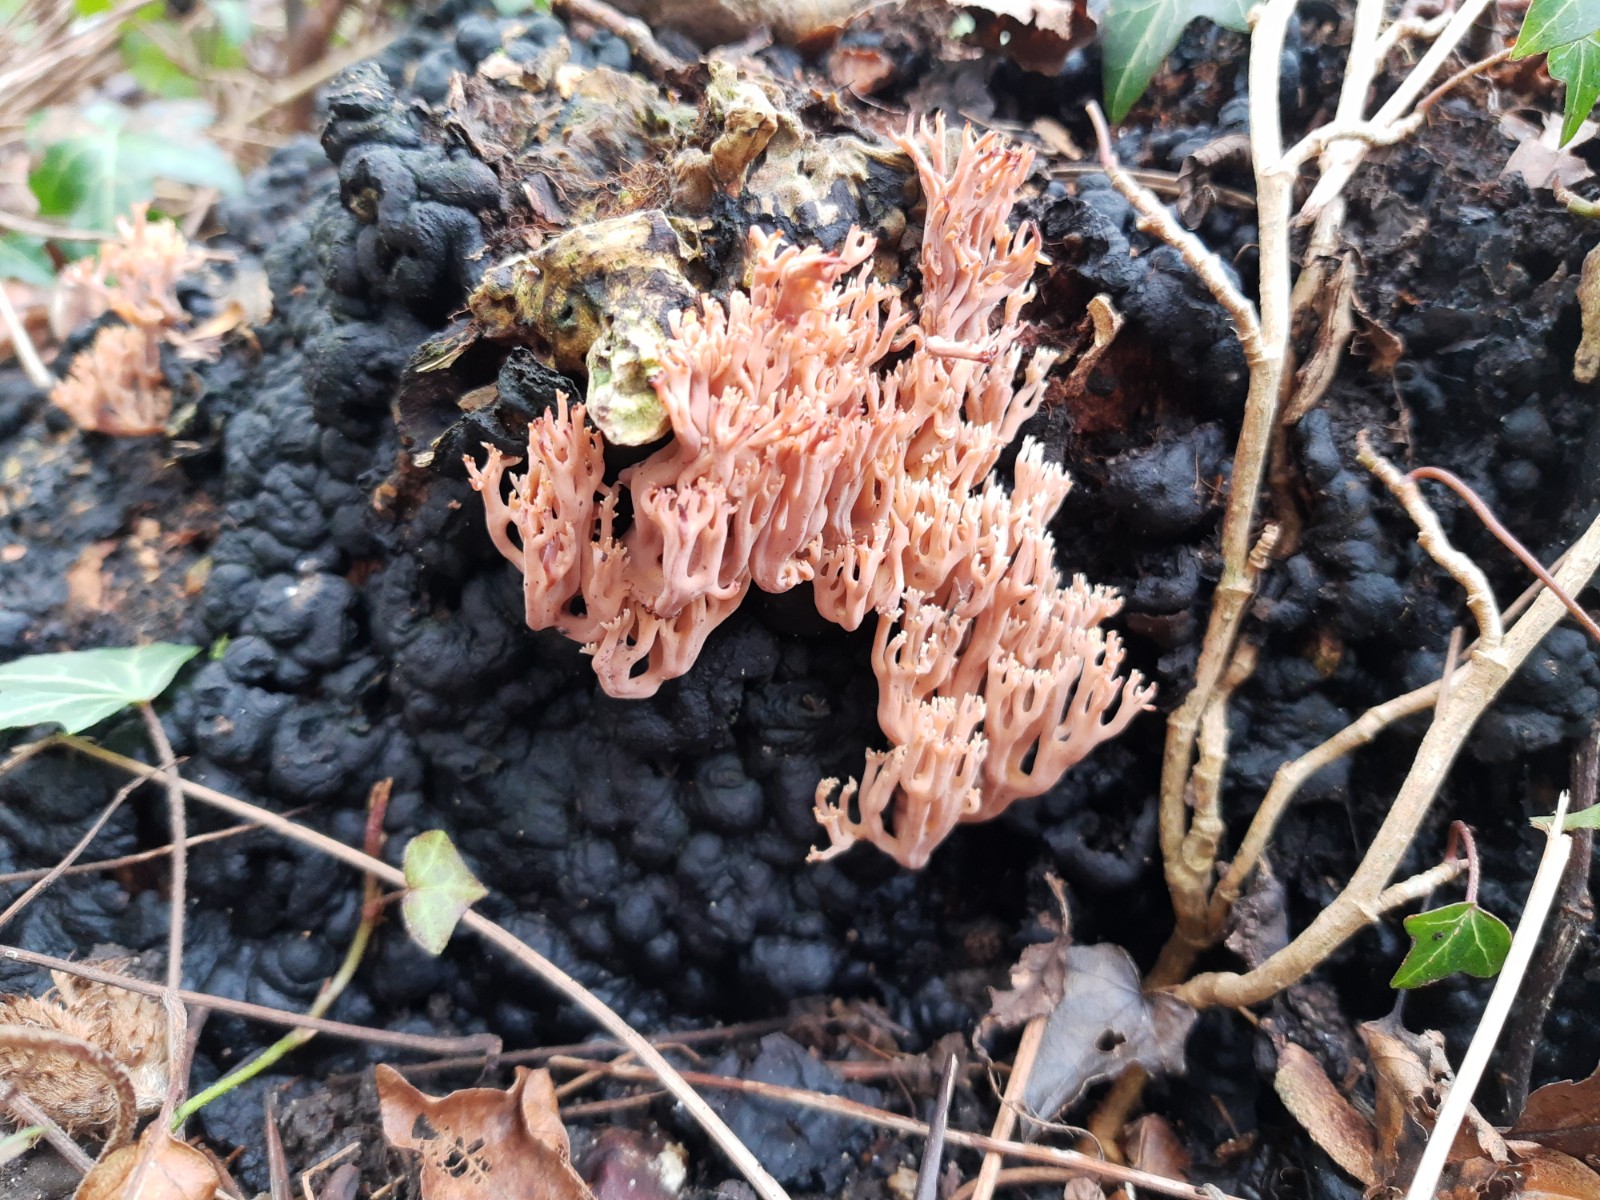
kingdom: Fungi
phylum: Basidiomycota
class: Agaricomycetes
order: Gomphales
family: Gomphaceae
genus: Ramaria
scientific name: Ramaria stricta
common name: rank koralsvamp
